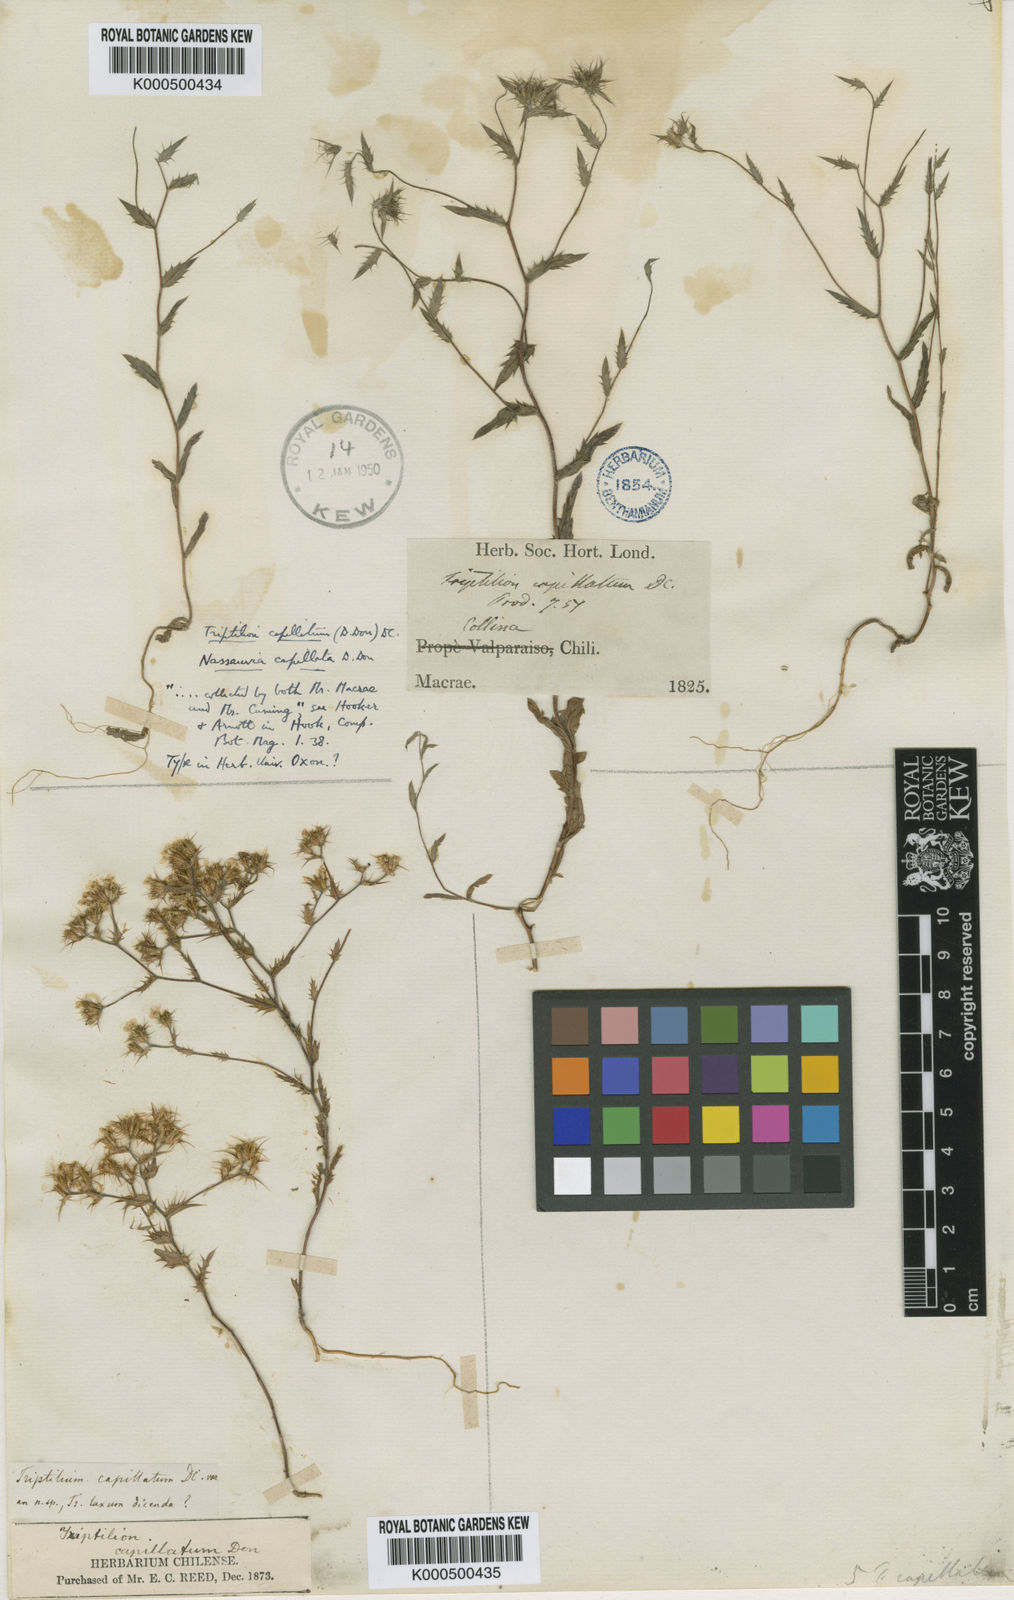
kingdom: Plantae
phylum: Tracheophyta
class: Magnoliopsida
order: Asterales
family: Asteraceae
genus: Triptilion
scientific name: Triptilion
